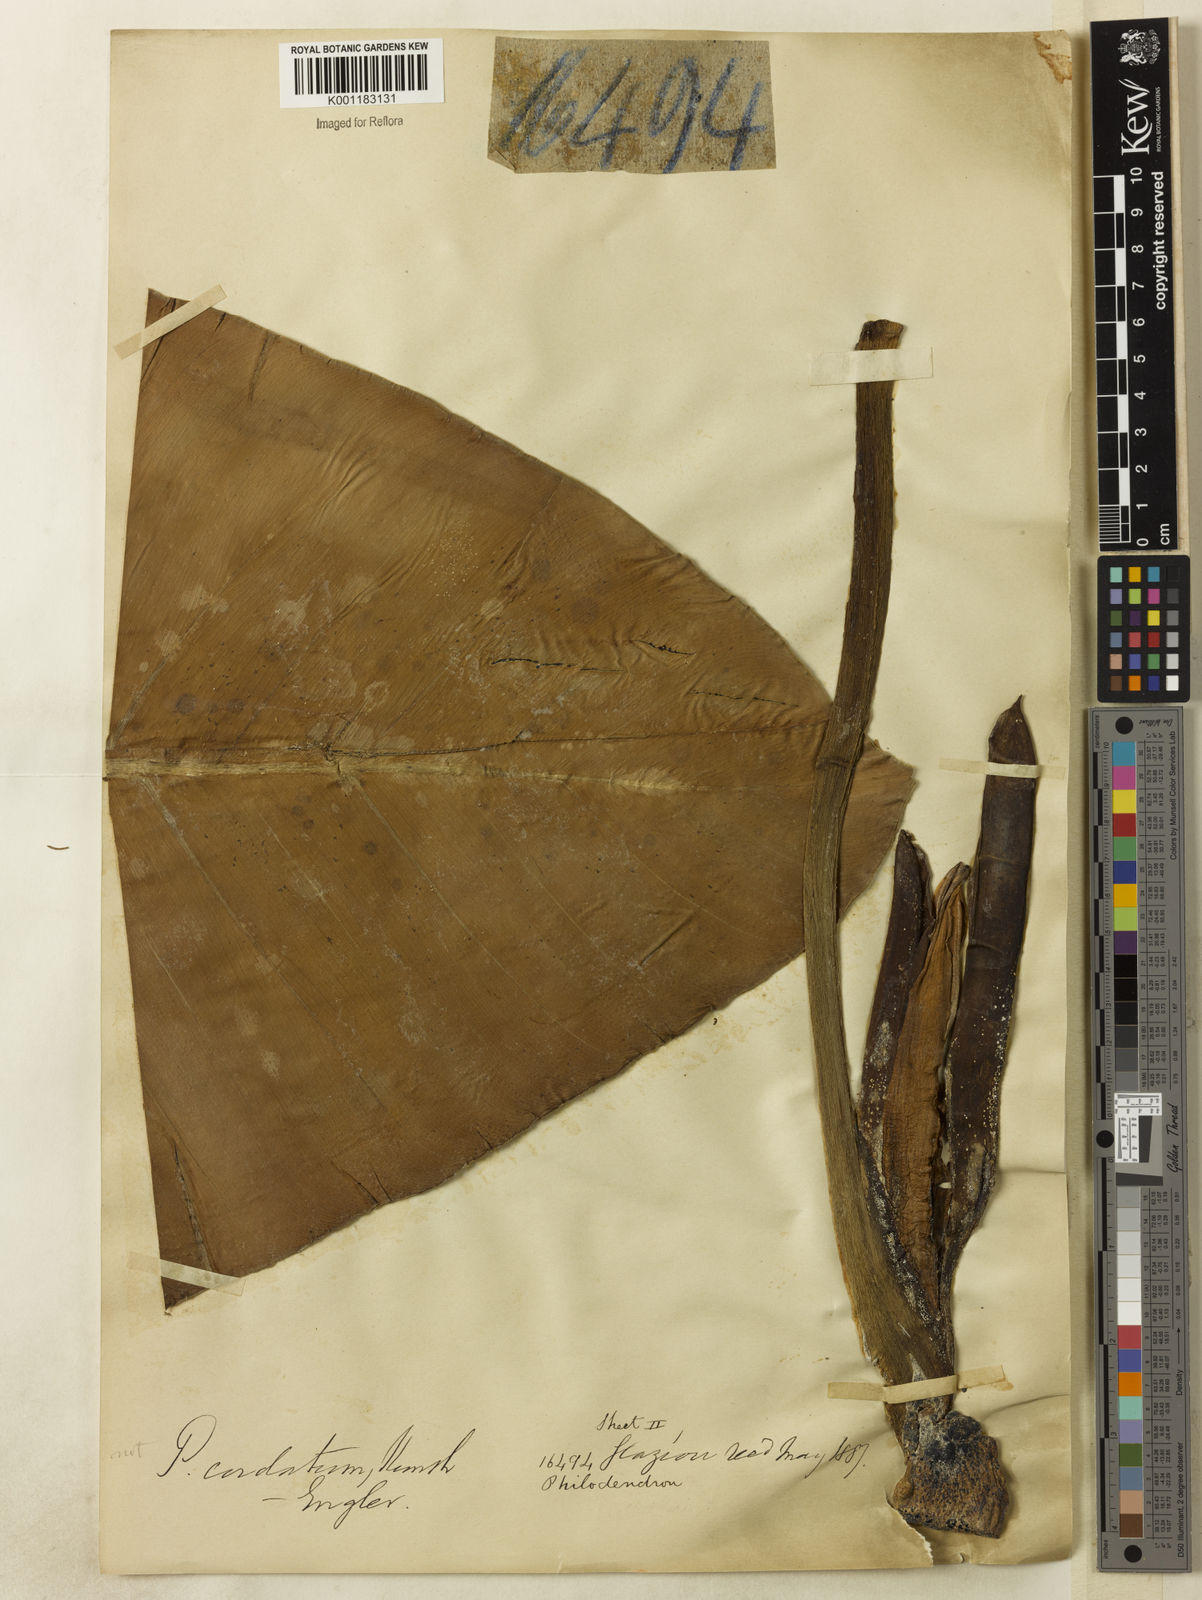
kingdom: Plantae
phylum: Tracheophyta
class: Liliopsida
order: Alismatales
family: Araceae
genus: Philodendron
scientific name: Philodendron cordatum
